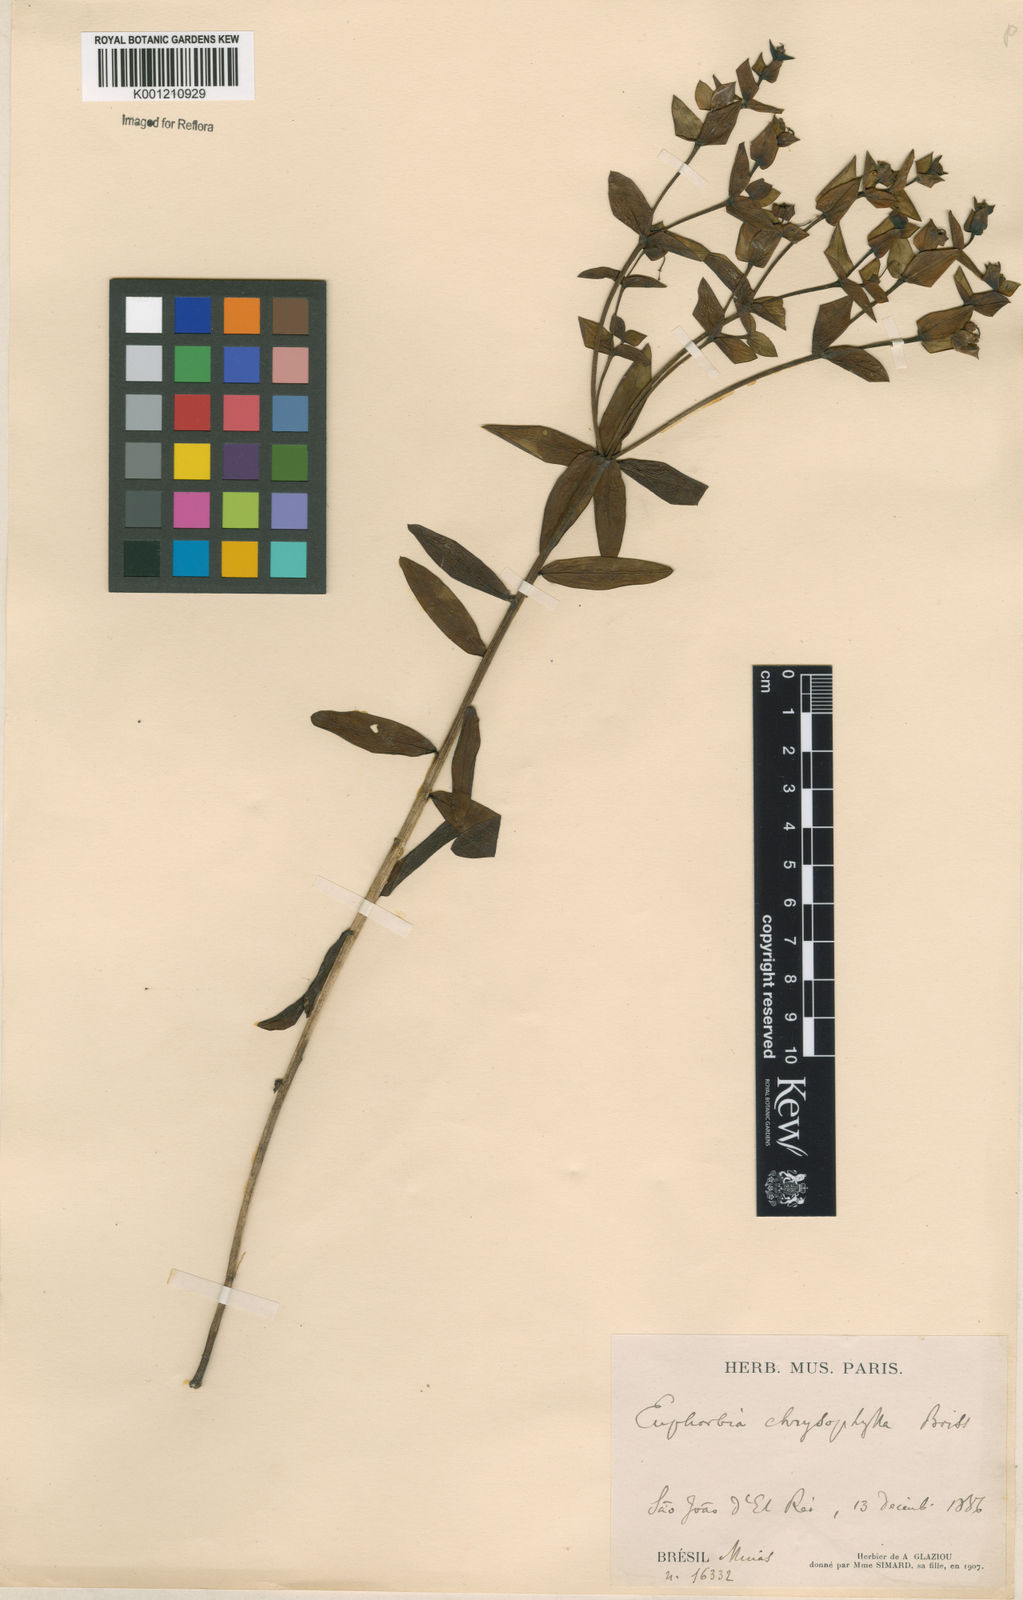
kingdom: Plantae
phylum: Tracheophyta
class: Magnoliopsida
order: Malpighiales
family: Euphorbiaceae
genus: Euphorbia
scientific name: Euphorbia chrysophylla
